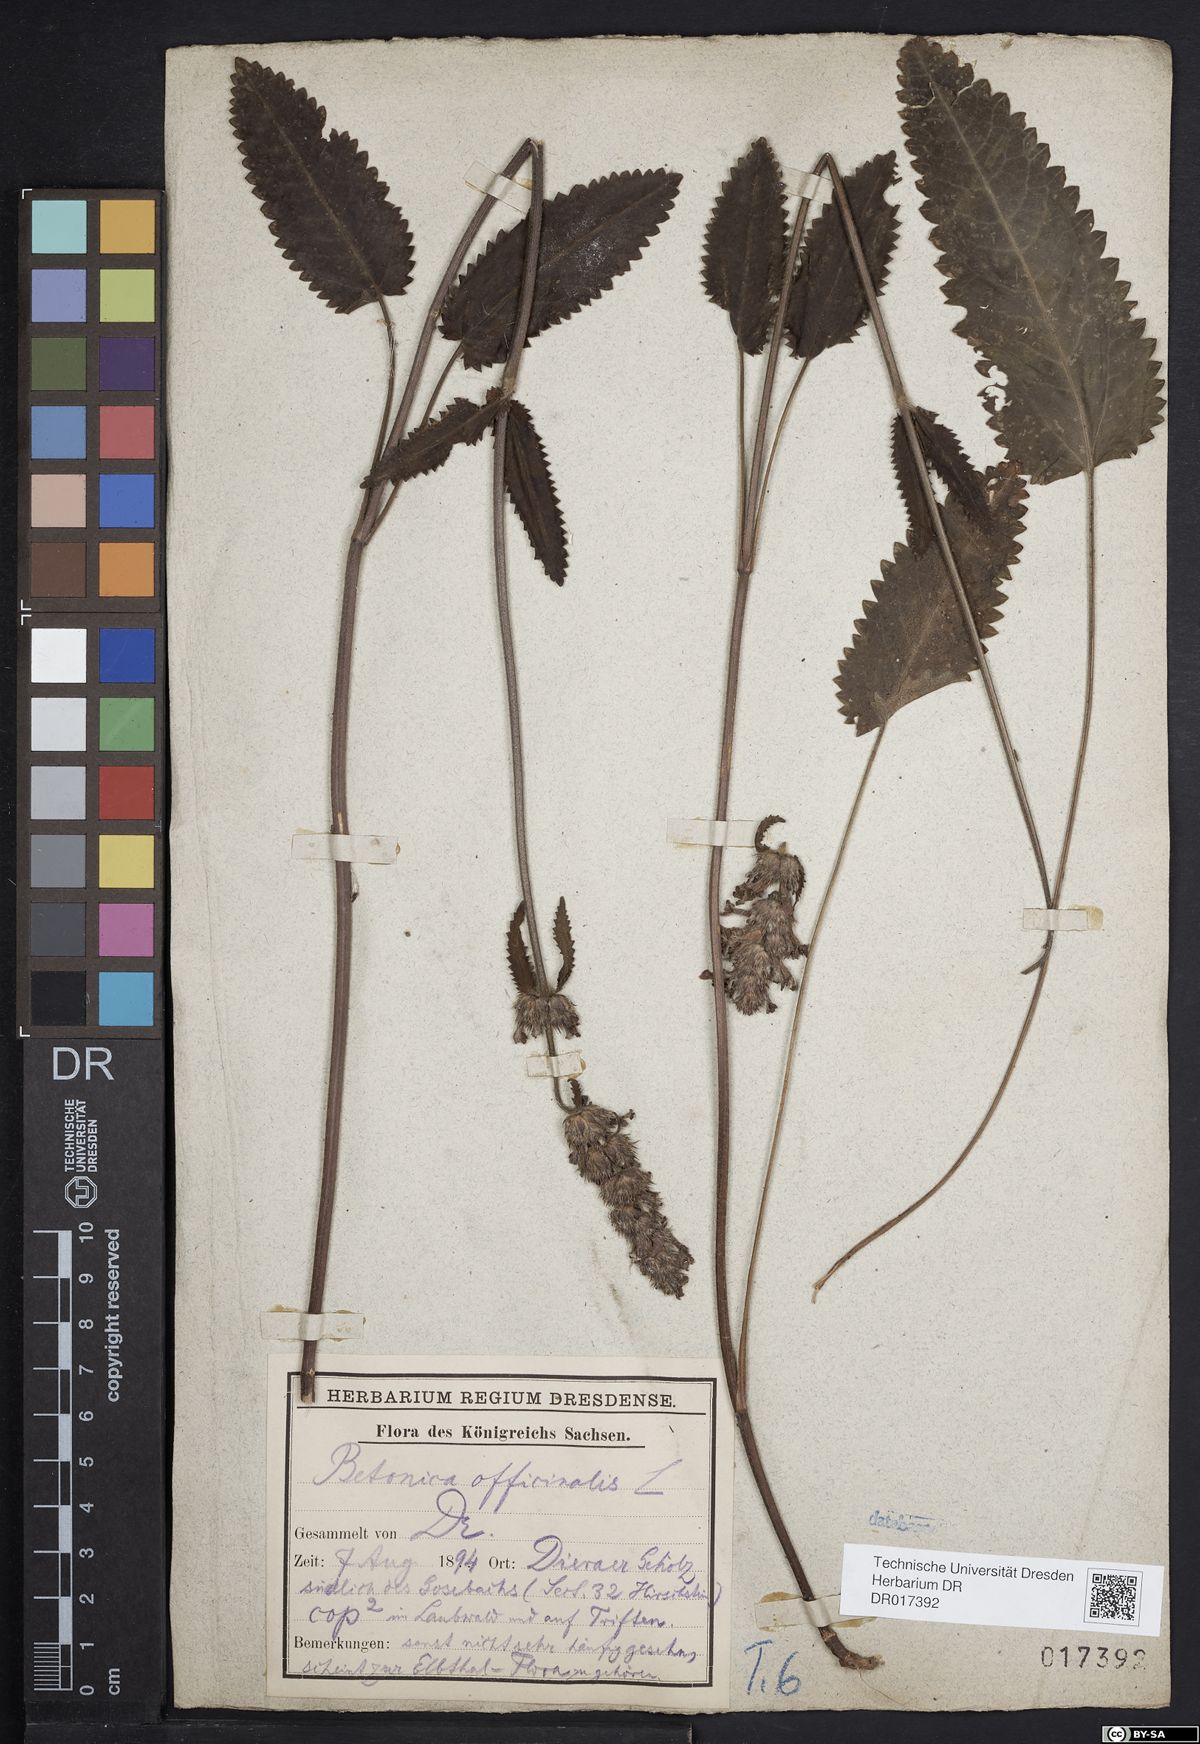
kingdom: Plantae
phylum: Tracheophyta
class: Magnoliopsida
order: Lamiales
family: Lamiaceae
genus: Betonica
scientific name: Betonica officinalis
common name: Bishop's-wort
